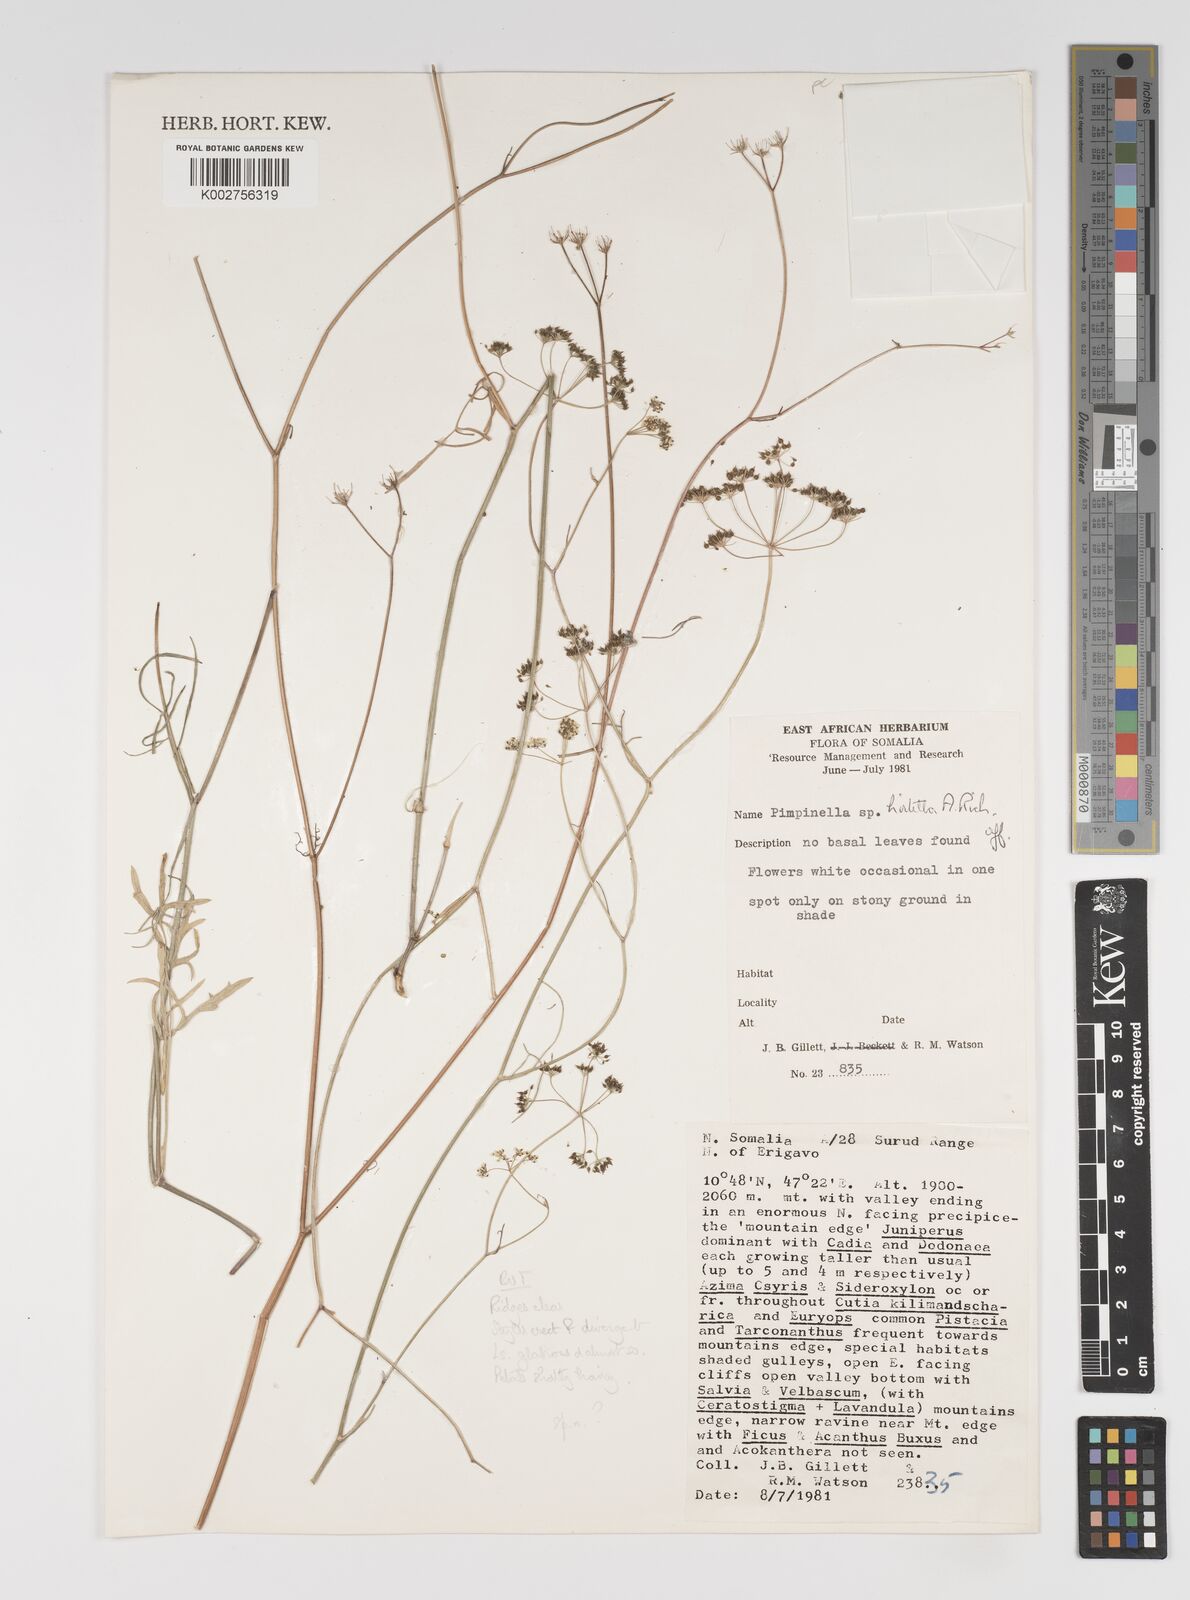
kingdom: Plantae
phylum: Tracheophyta
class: Magnoliopsida
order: Apiales
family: Apiaceae
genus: Pimpinella
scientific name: Pimpinella
